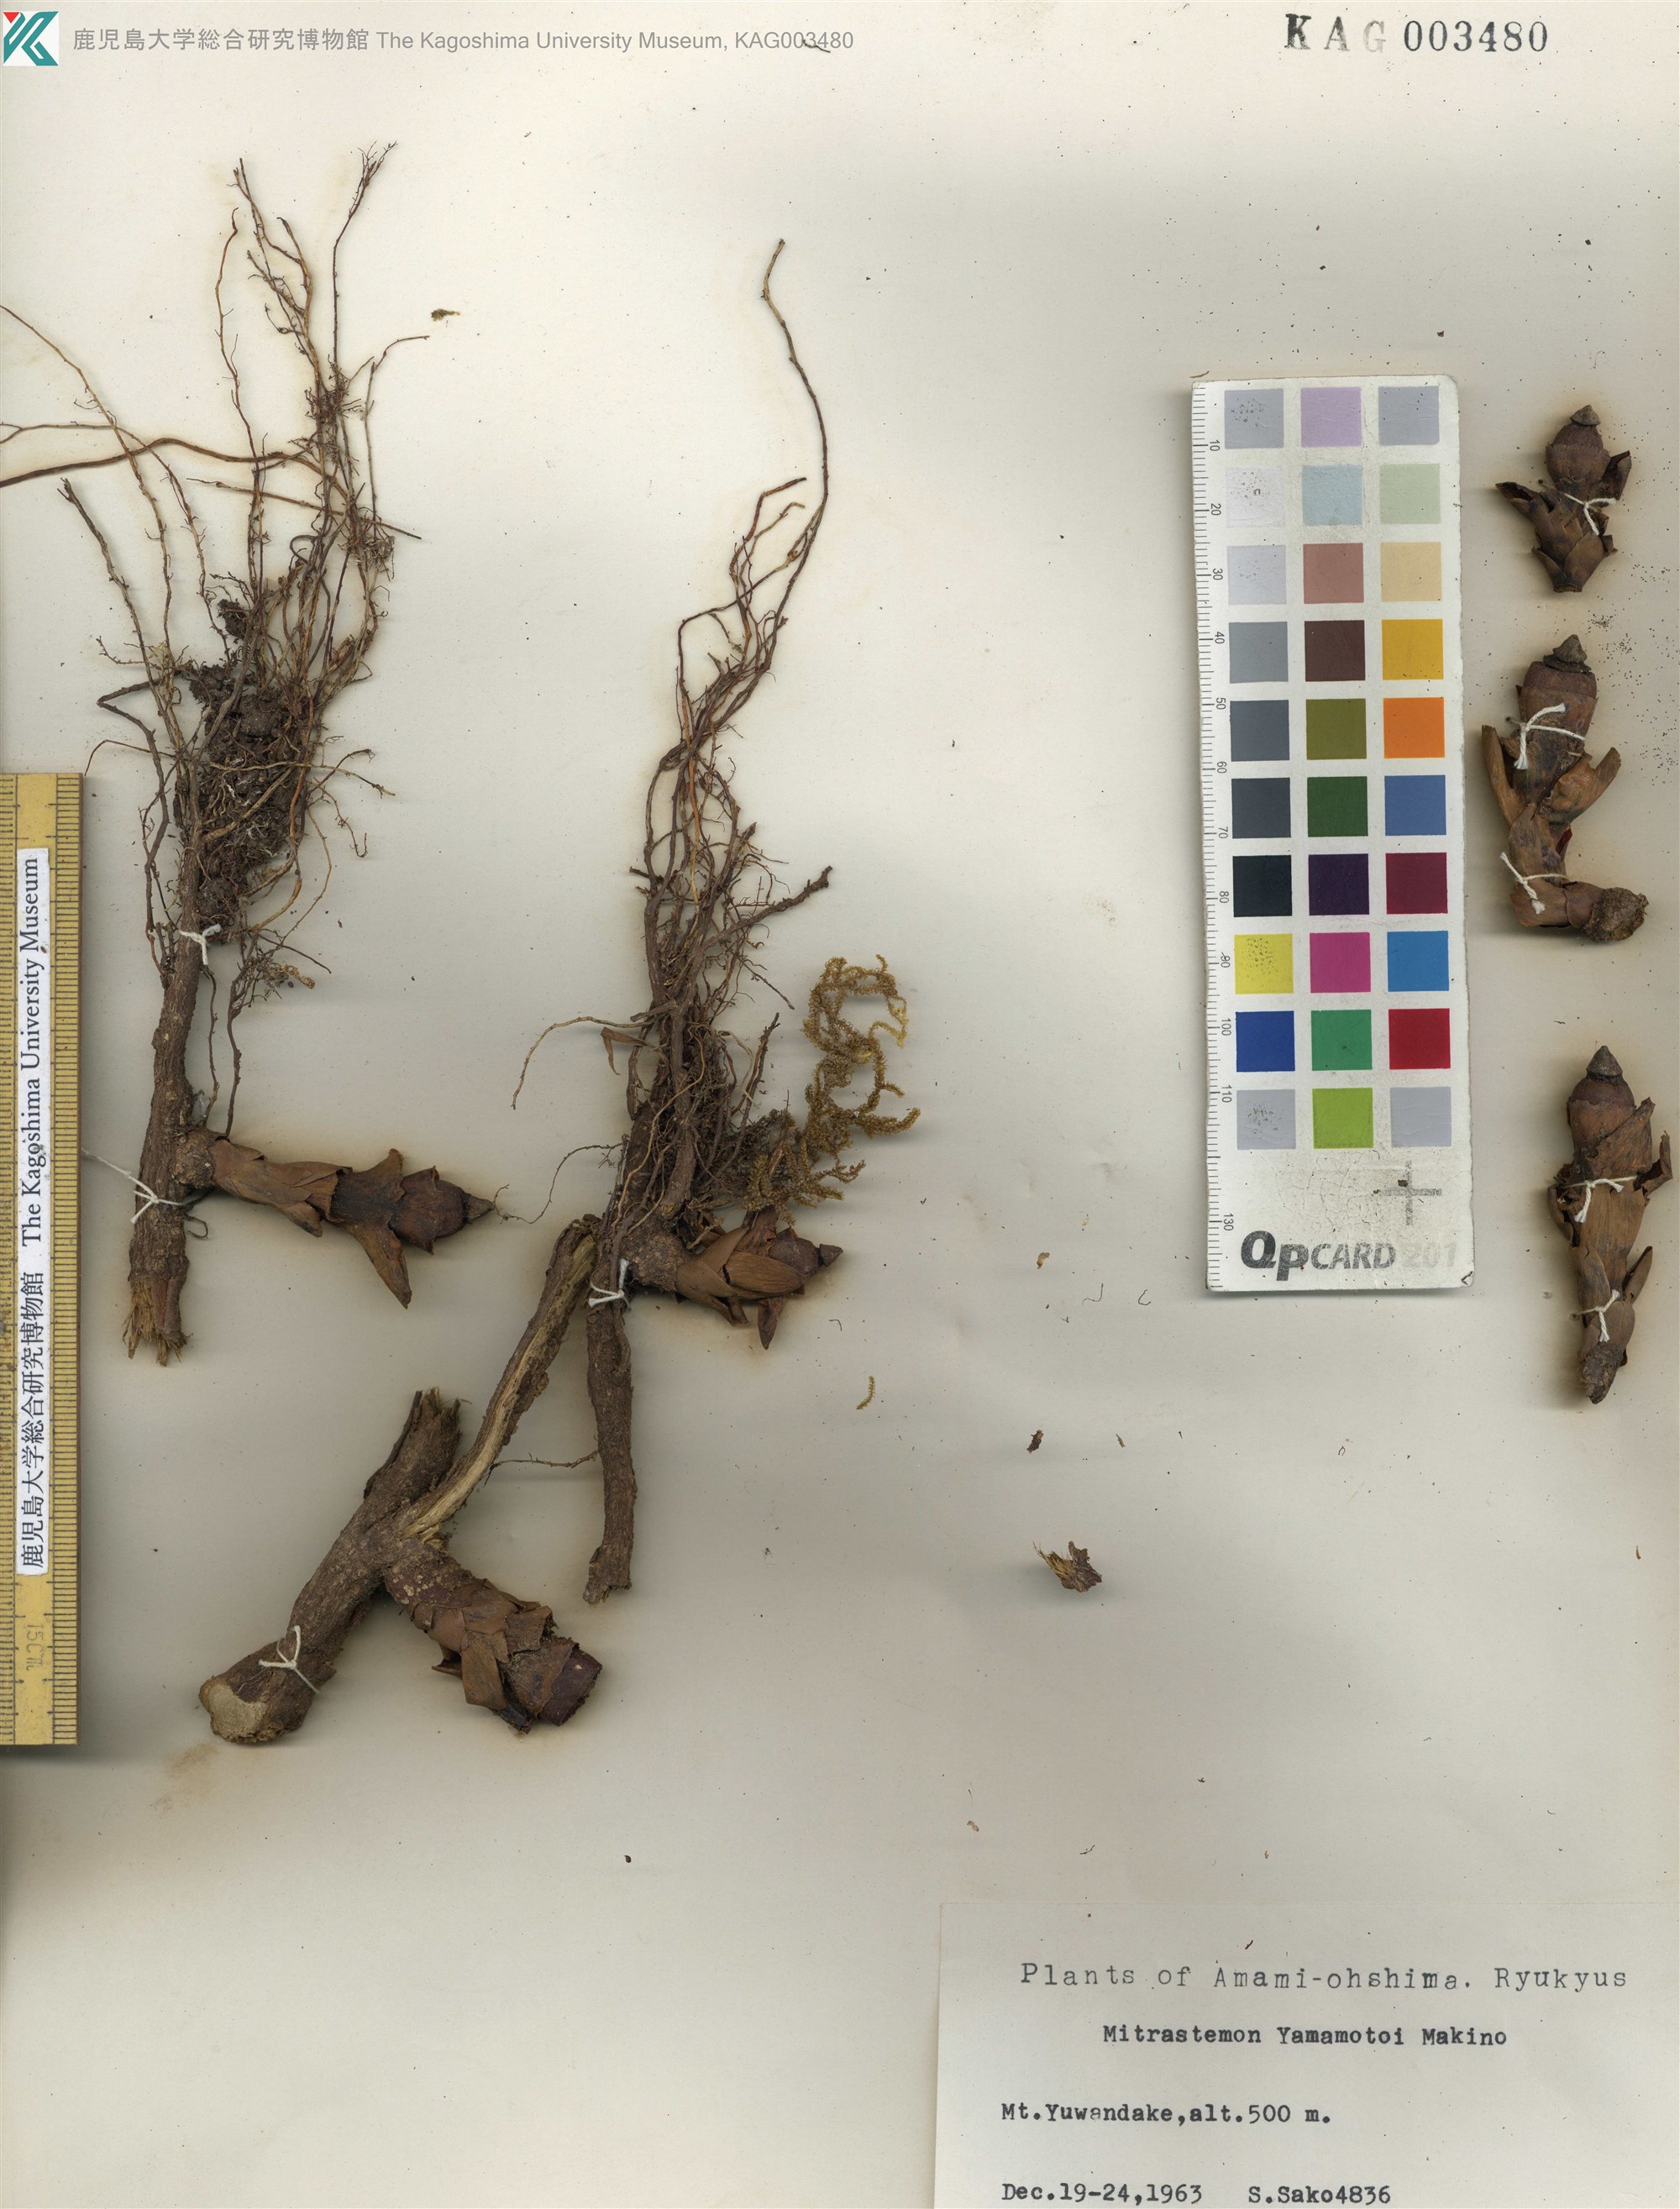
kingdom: Plantae
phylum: Tracheophyta
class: Magnoliopsida
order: Ericales
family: Mitrastemonaceae
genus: Mitrastemon
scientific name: Mitrastemon yamamotoi
